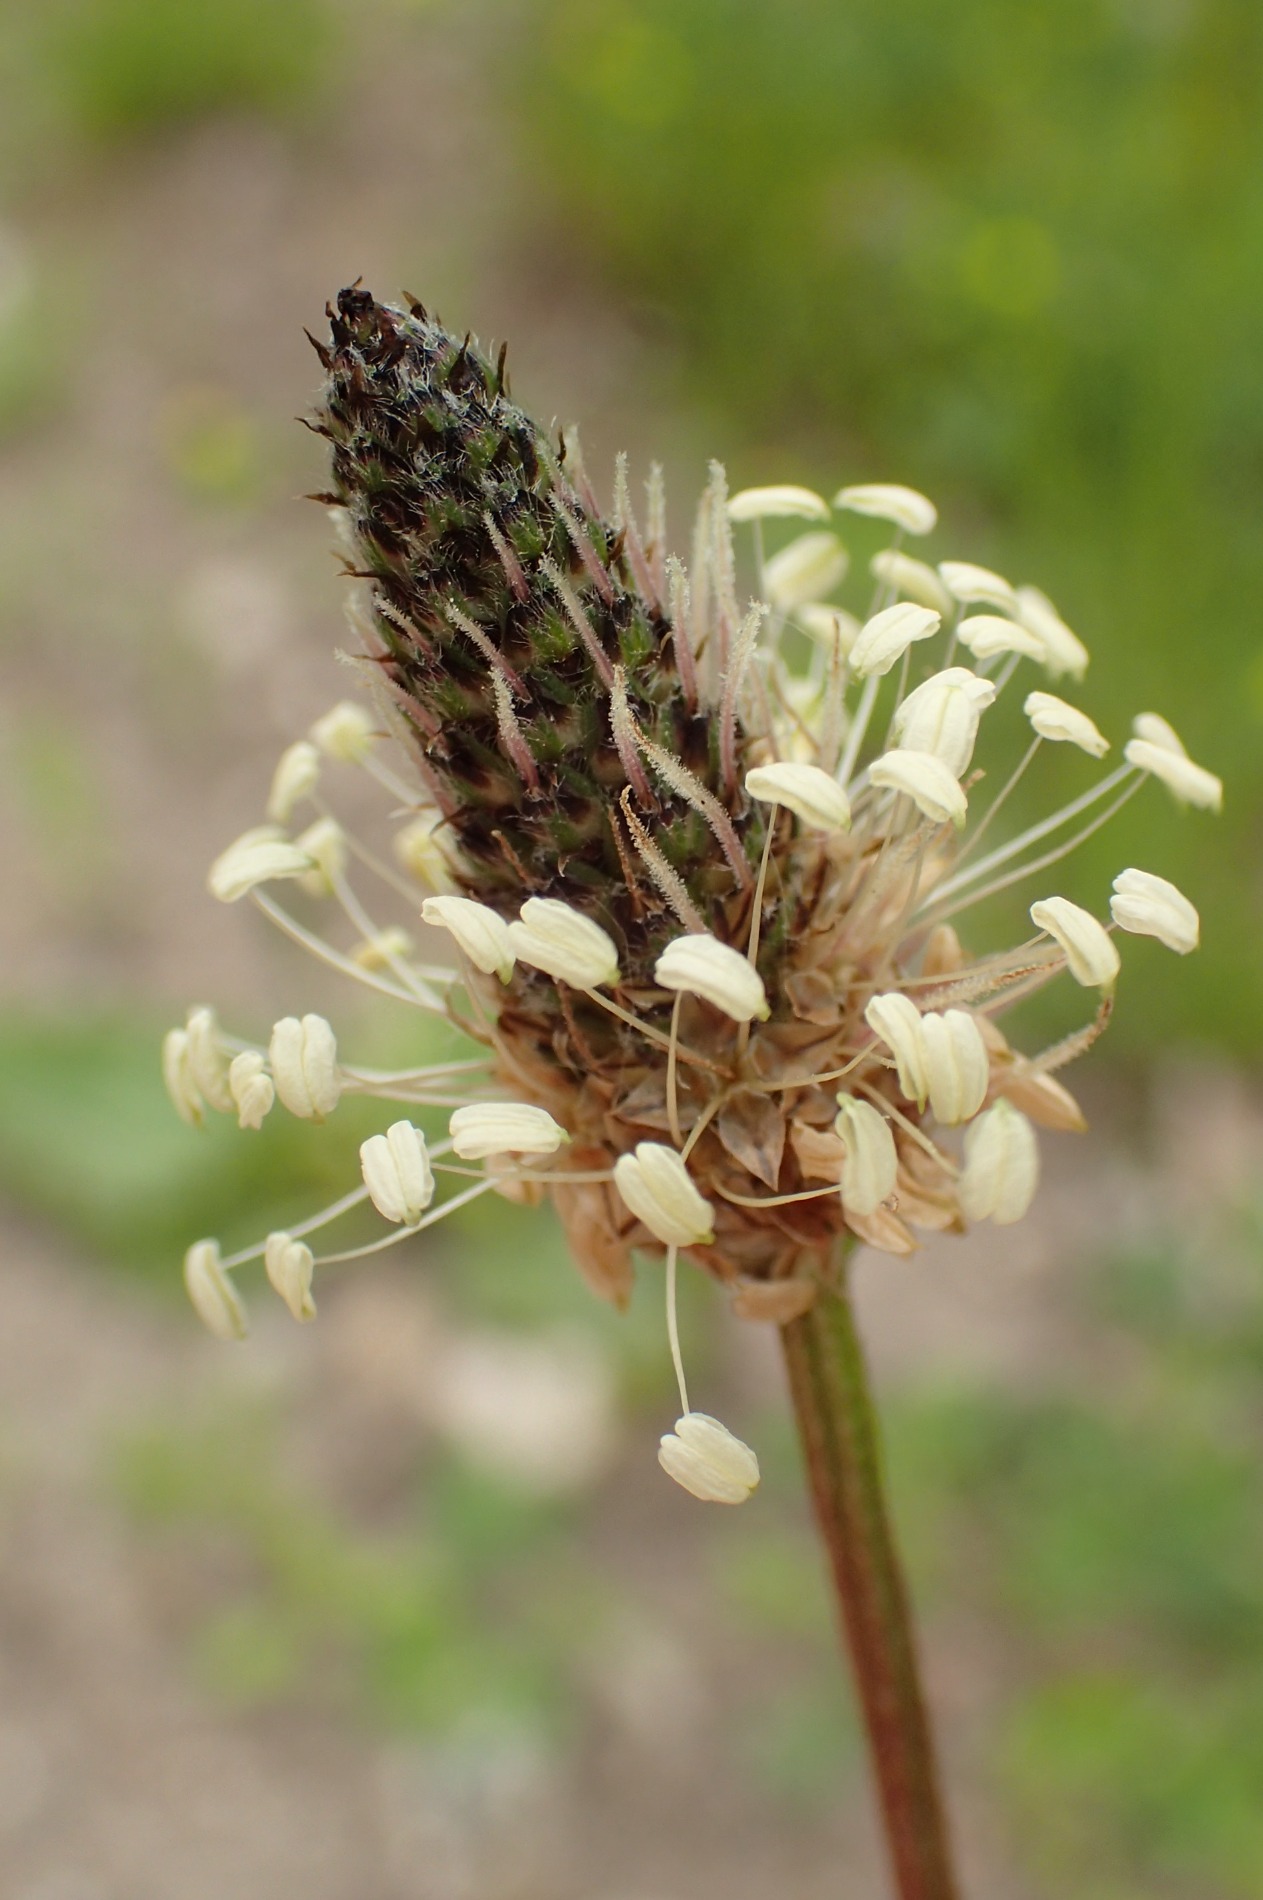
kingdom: Plantae
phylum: Tracheophyta
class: Magnoliopsida
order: Lamiales
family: Plantaginaceae
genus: Plantago
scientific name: Plantago lanceolata
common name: Lancet-vejbred
